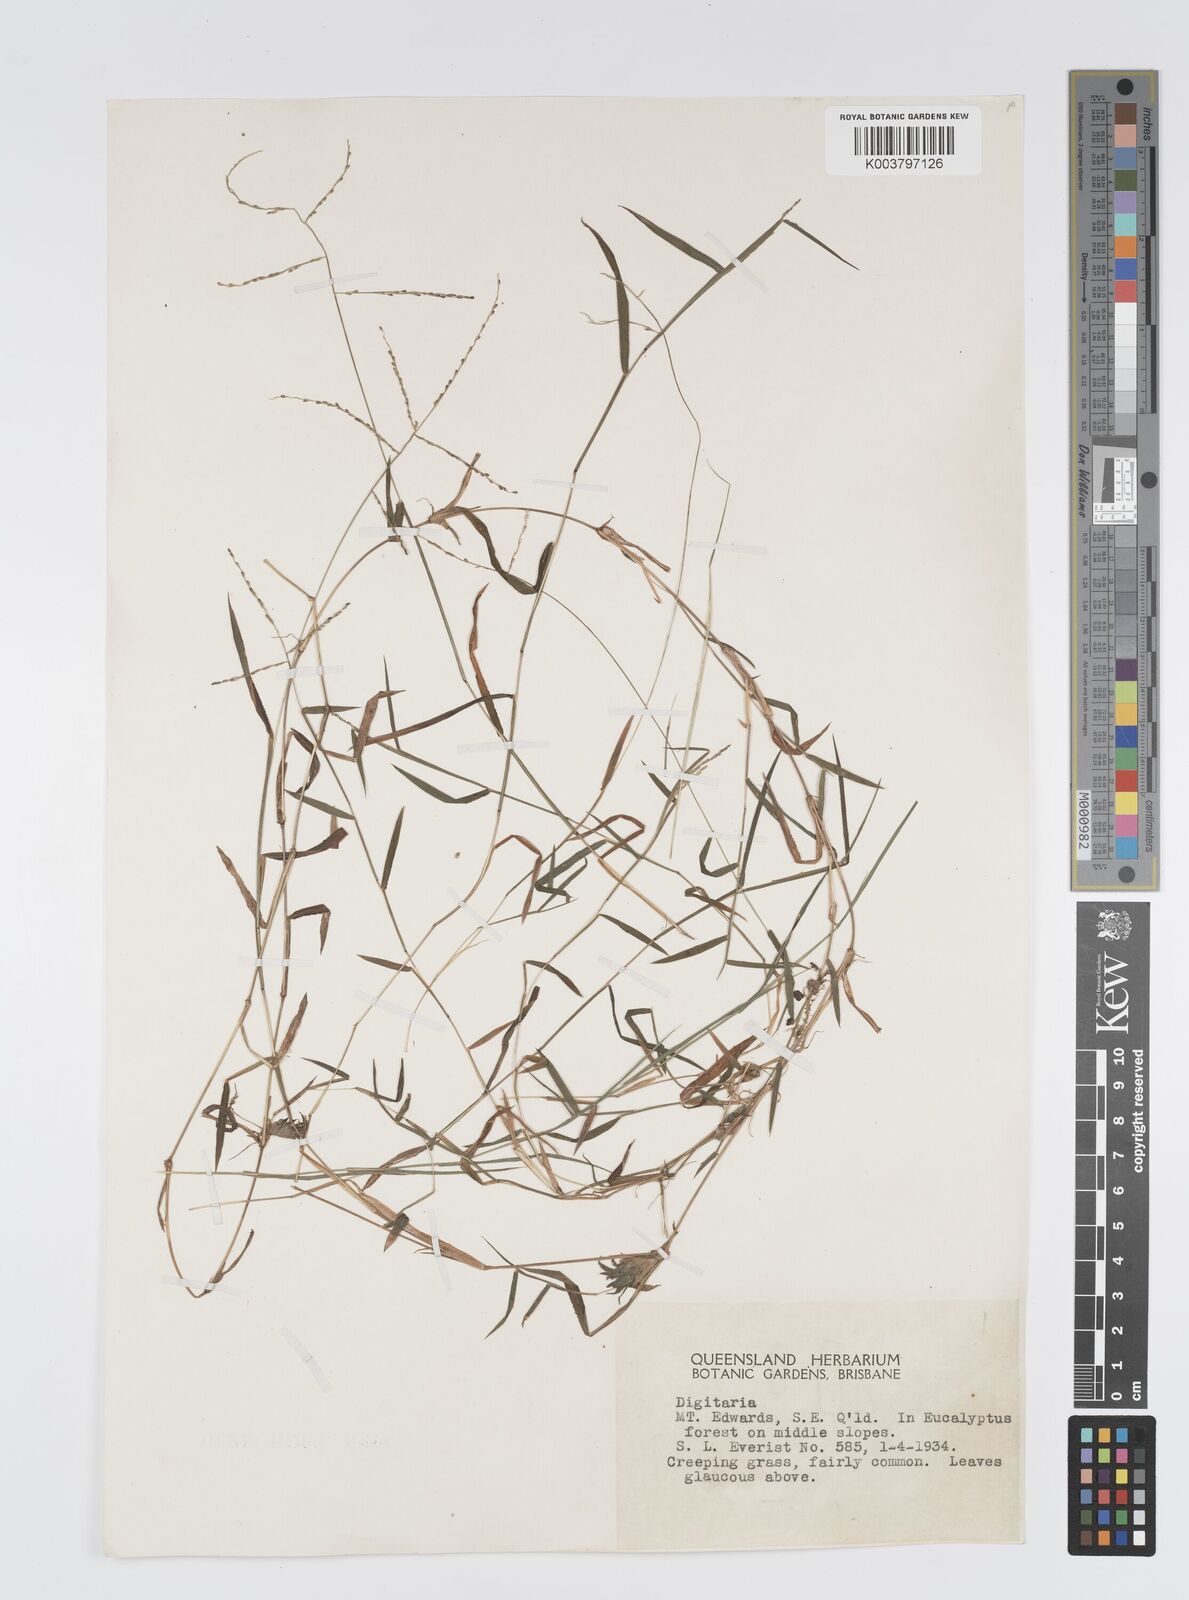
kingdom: Plantae
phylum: Tracheophyta
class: Liliopsida
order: Poales
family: Poaceae
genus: Digitaria
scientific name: Digitaria diffusa
